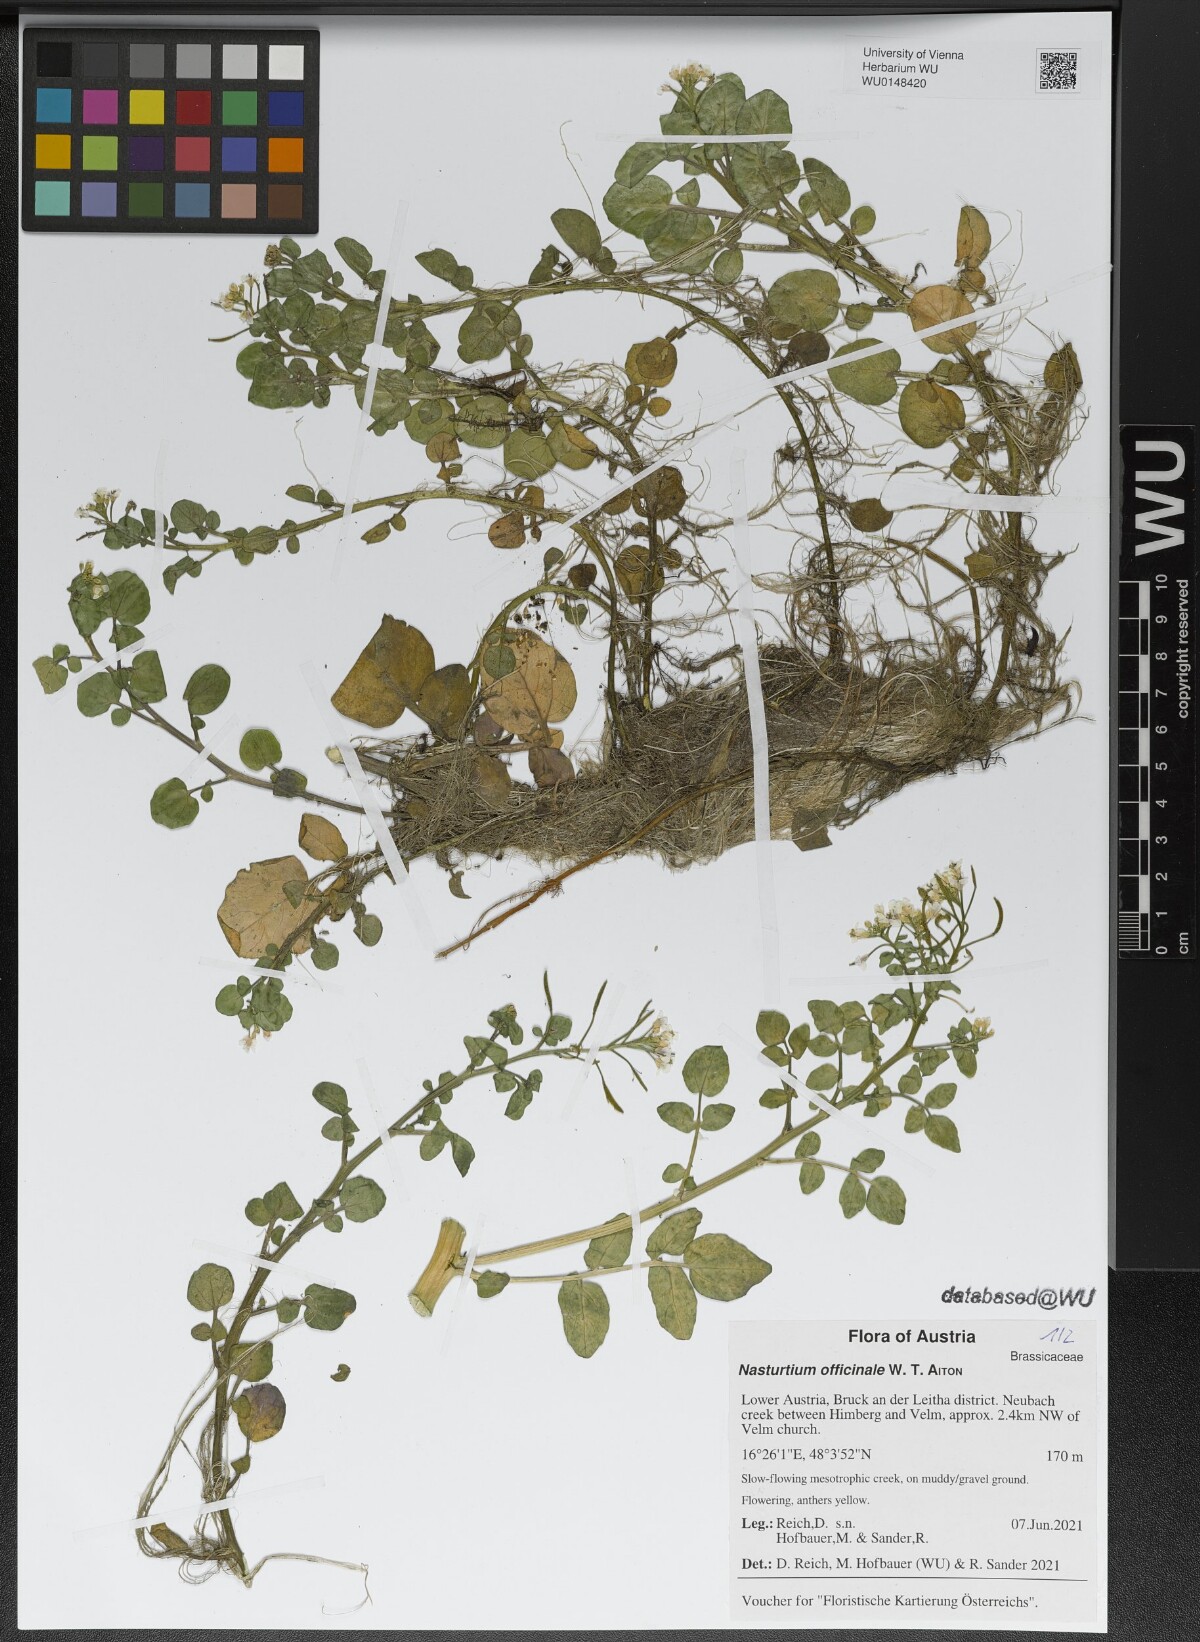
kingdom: Plantae
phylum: Tracheophyta
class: Magnoliopsida
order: Brassicales
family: Brassicaceae
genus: Nasturtium
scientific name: Nasturtium officinale
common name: Watercress
